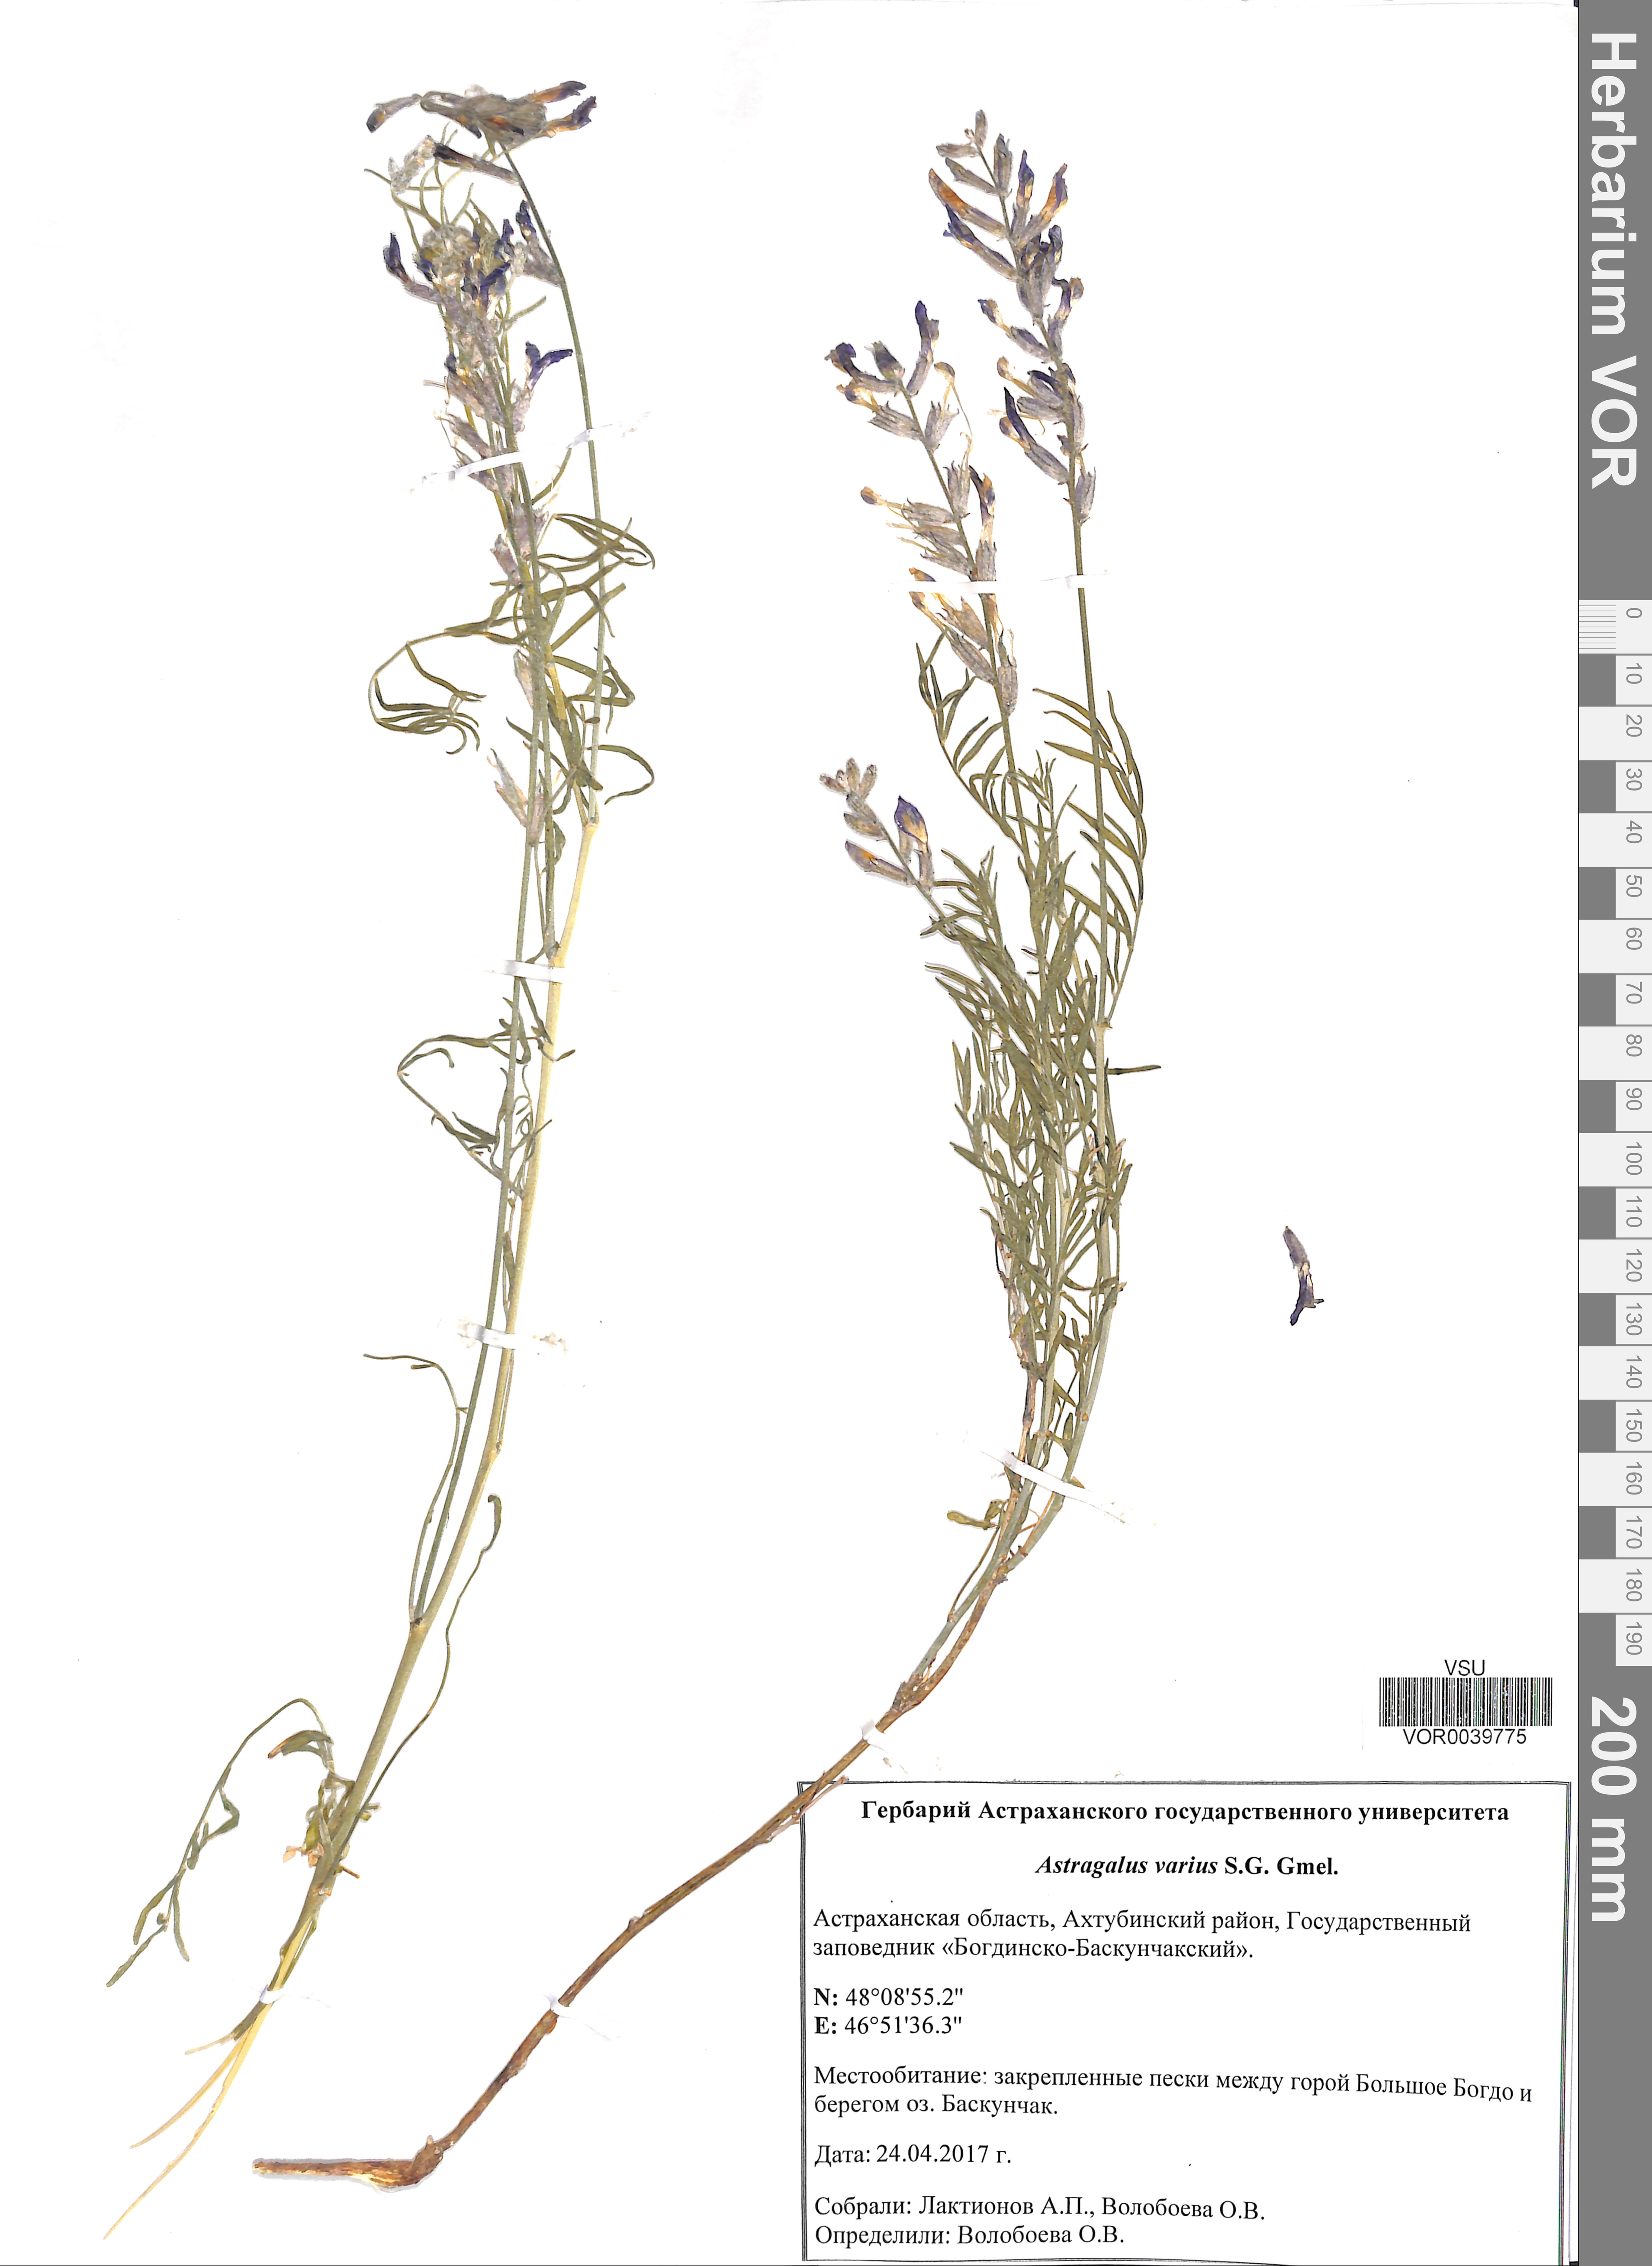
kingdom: Plantae
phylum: Tracheophyta
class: Magnoliopsida
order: Fabales
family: Fabaceae
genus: Astragalus
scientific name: Astragalus varius
